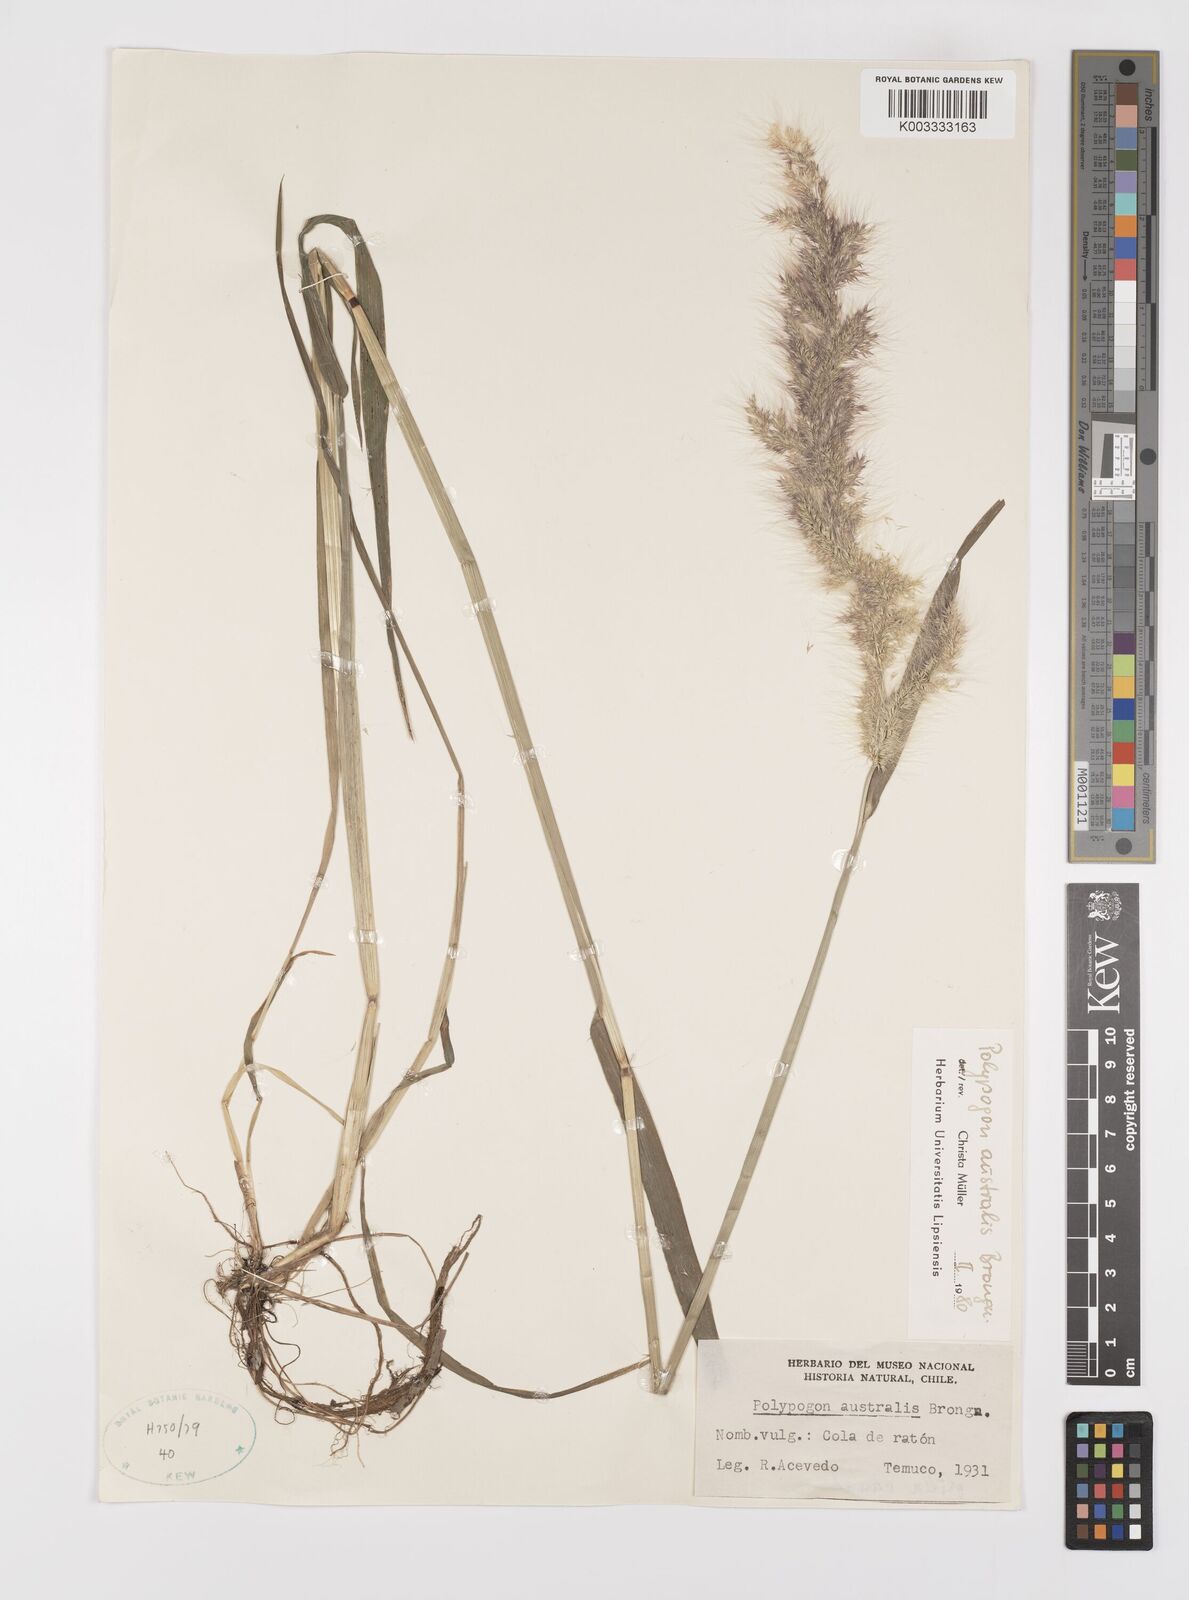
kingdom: Plantae
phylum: Tracheophyta
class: Liliopsida
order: Poales
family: Poaceae
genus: Polypogon
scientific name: Polypogon australis
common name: Chilean rabbitsfoot grass
